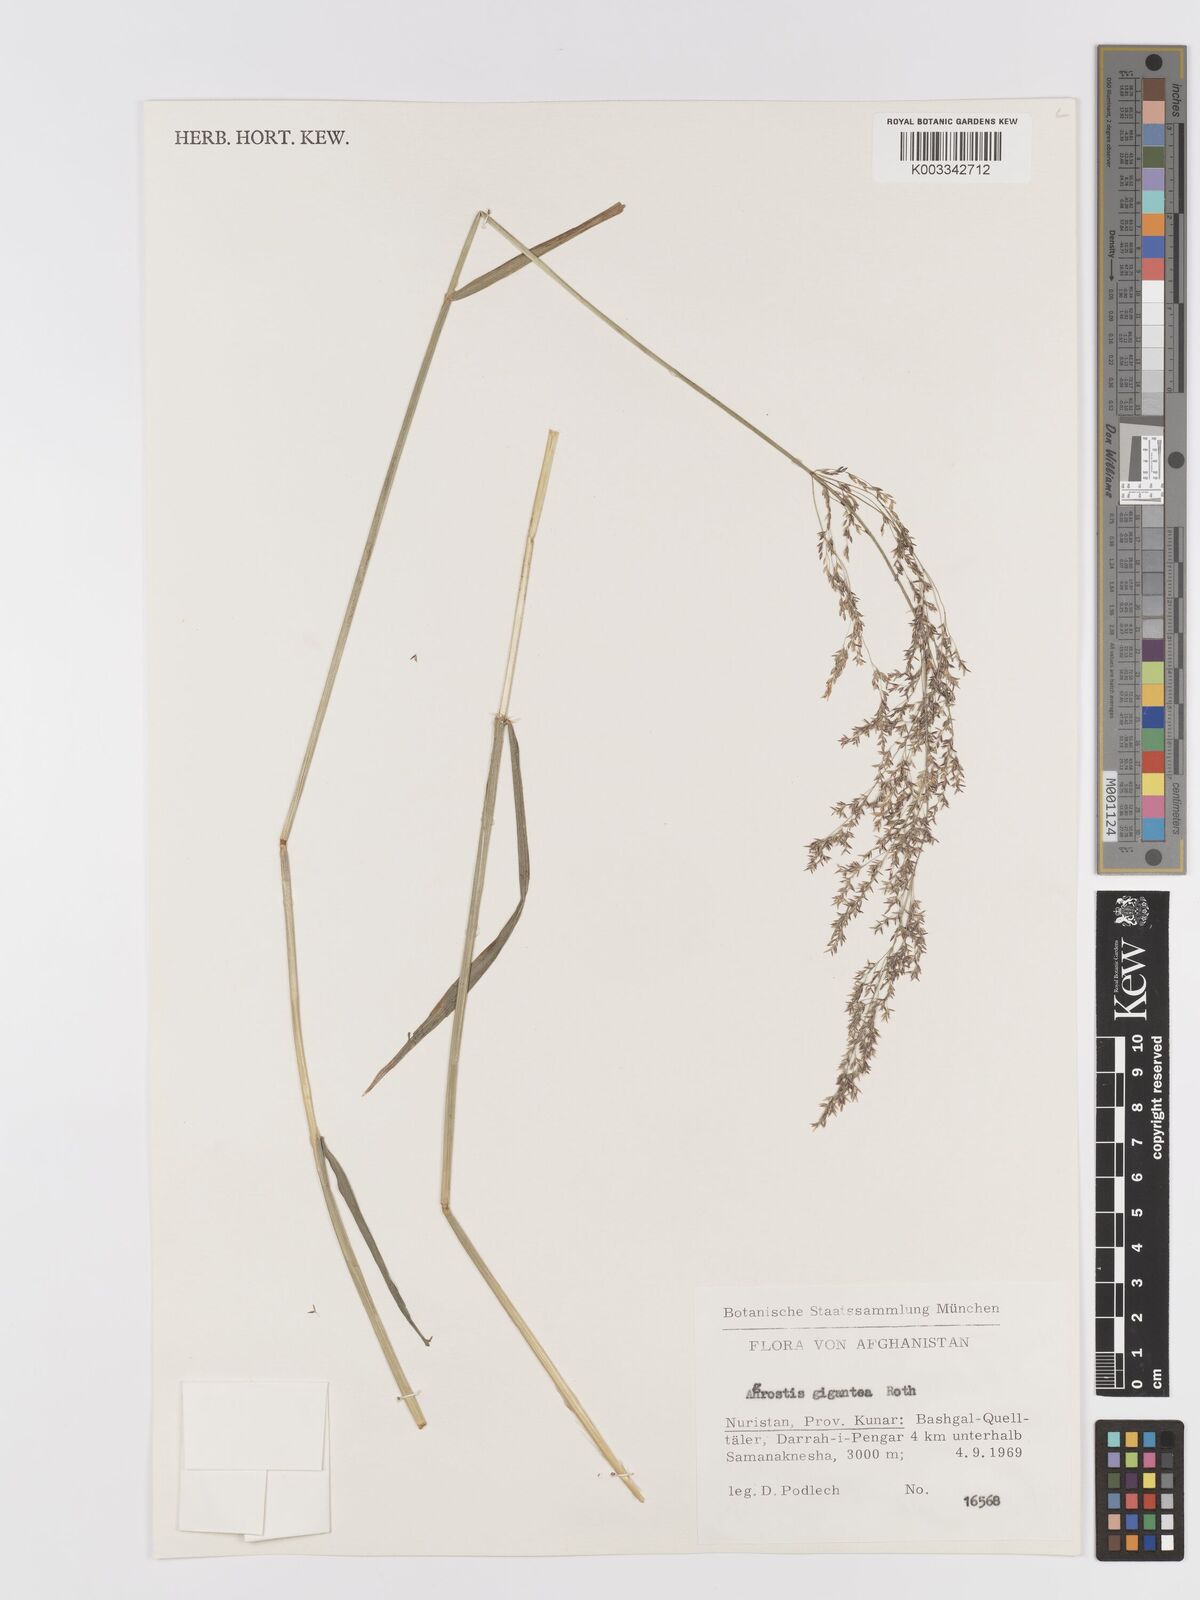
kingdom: Plantae
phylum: Tracheophyta
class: Liliopsida
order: Poales
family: Poaceae
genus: Agrostis
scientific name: Agrostis gigantea
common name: Black bent
